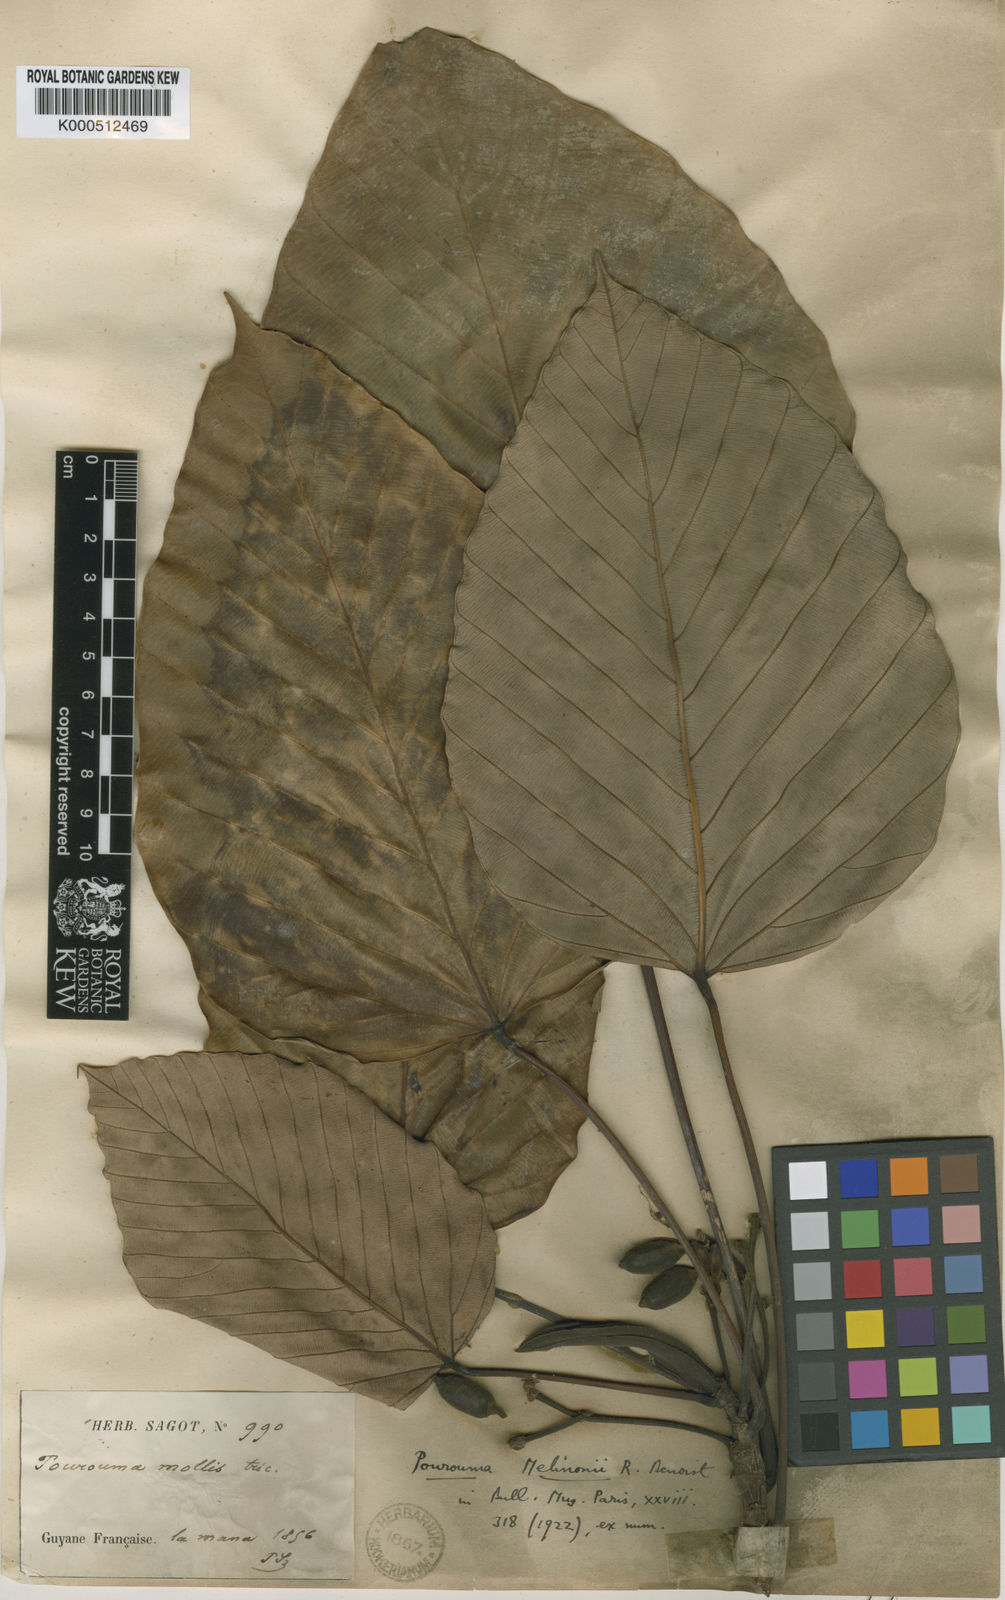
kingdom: Plantae
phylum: Tracheophyta
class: Magnoliopsida
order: Rosales
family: Urticaceae
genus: Pourouma
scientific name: Pourouma melinonii
